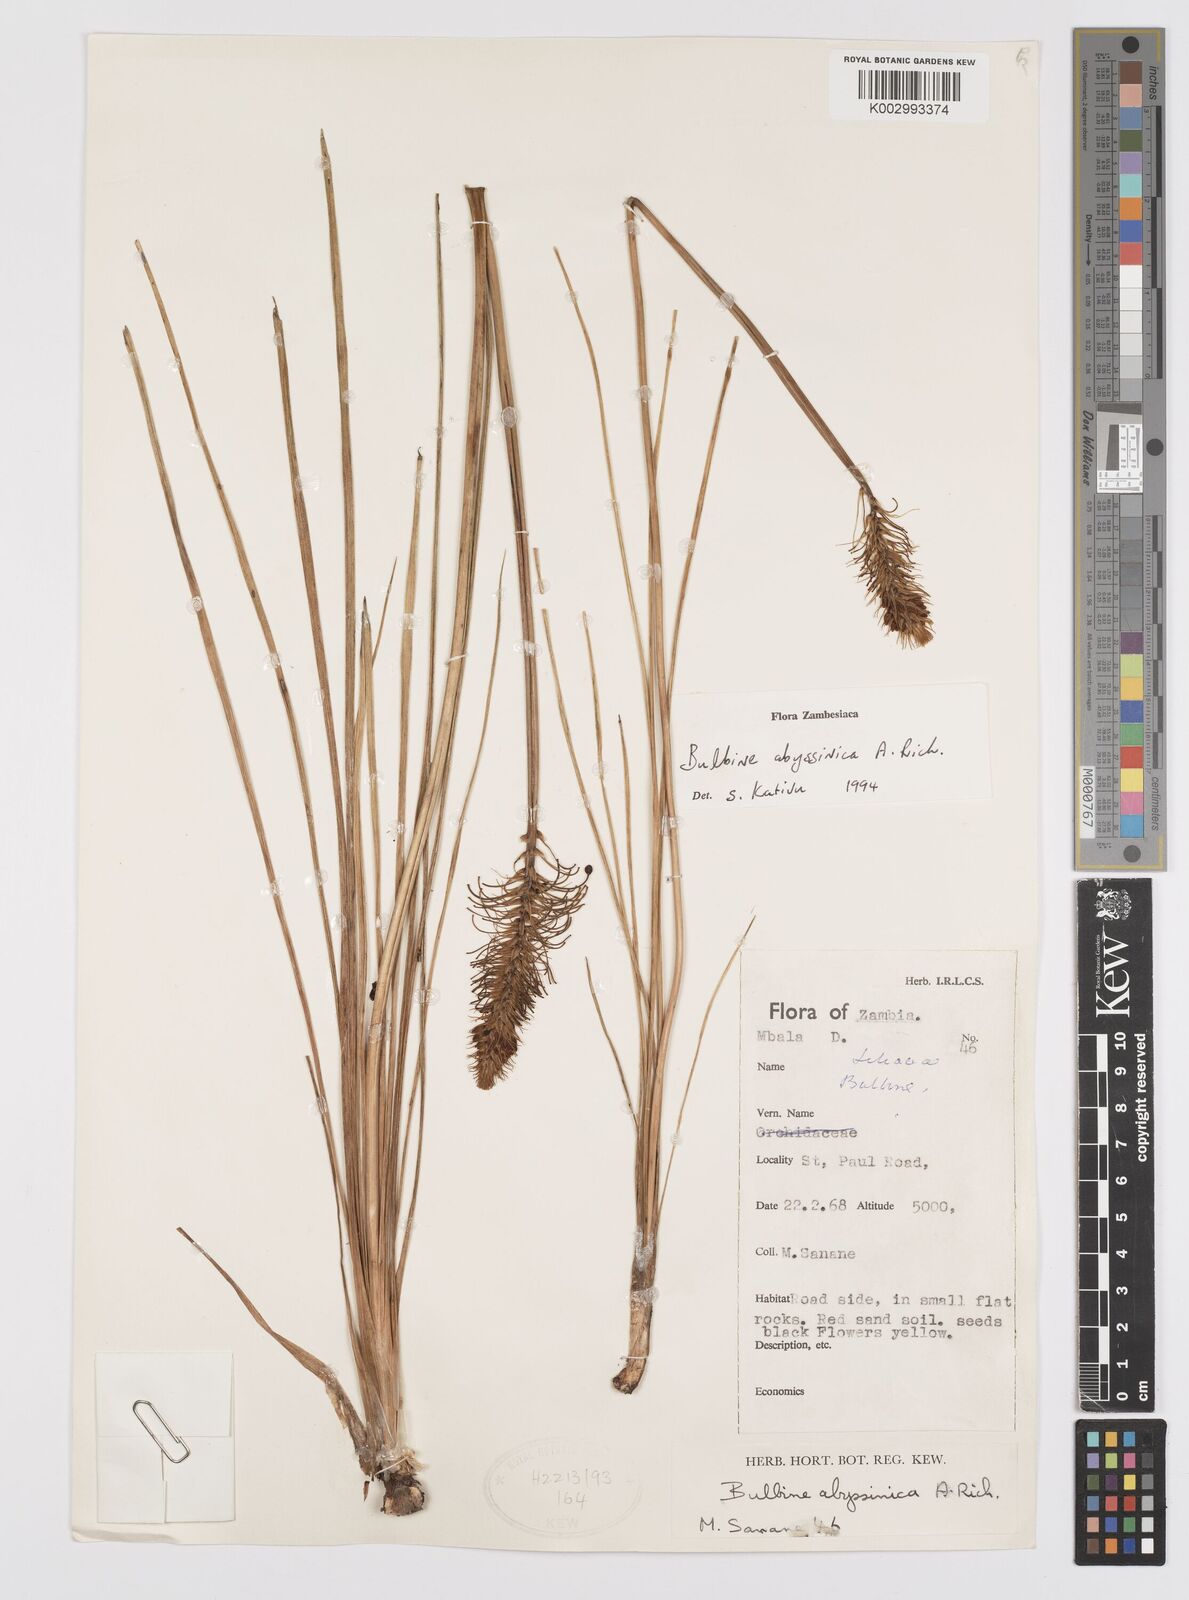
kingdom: Plantae
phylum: Tracheophyta
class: Liliopsida
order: Asparagales
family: Asphodelaceae
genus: Bulbine
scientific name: Bulbine abyssinica
